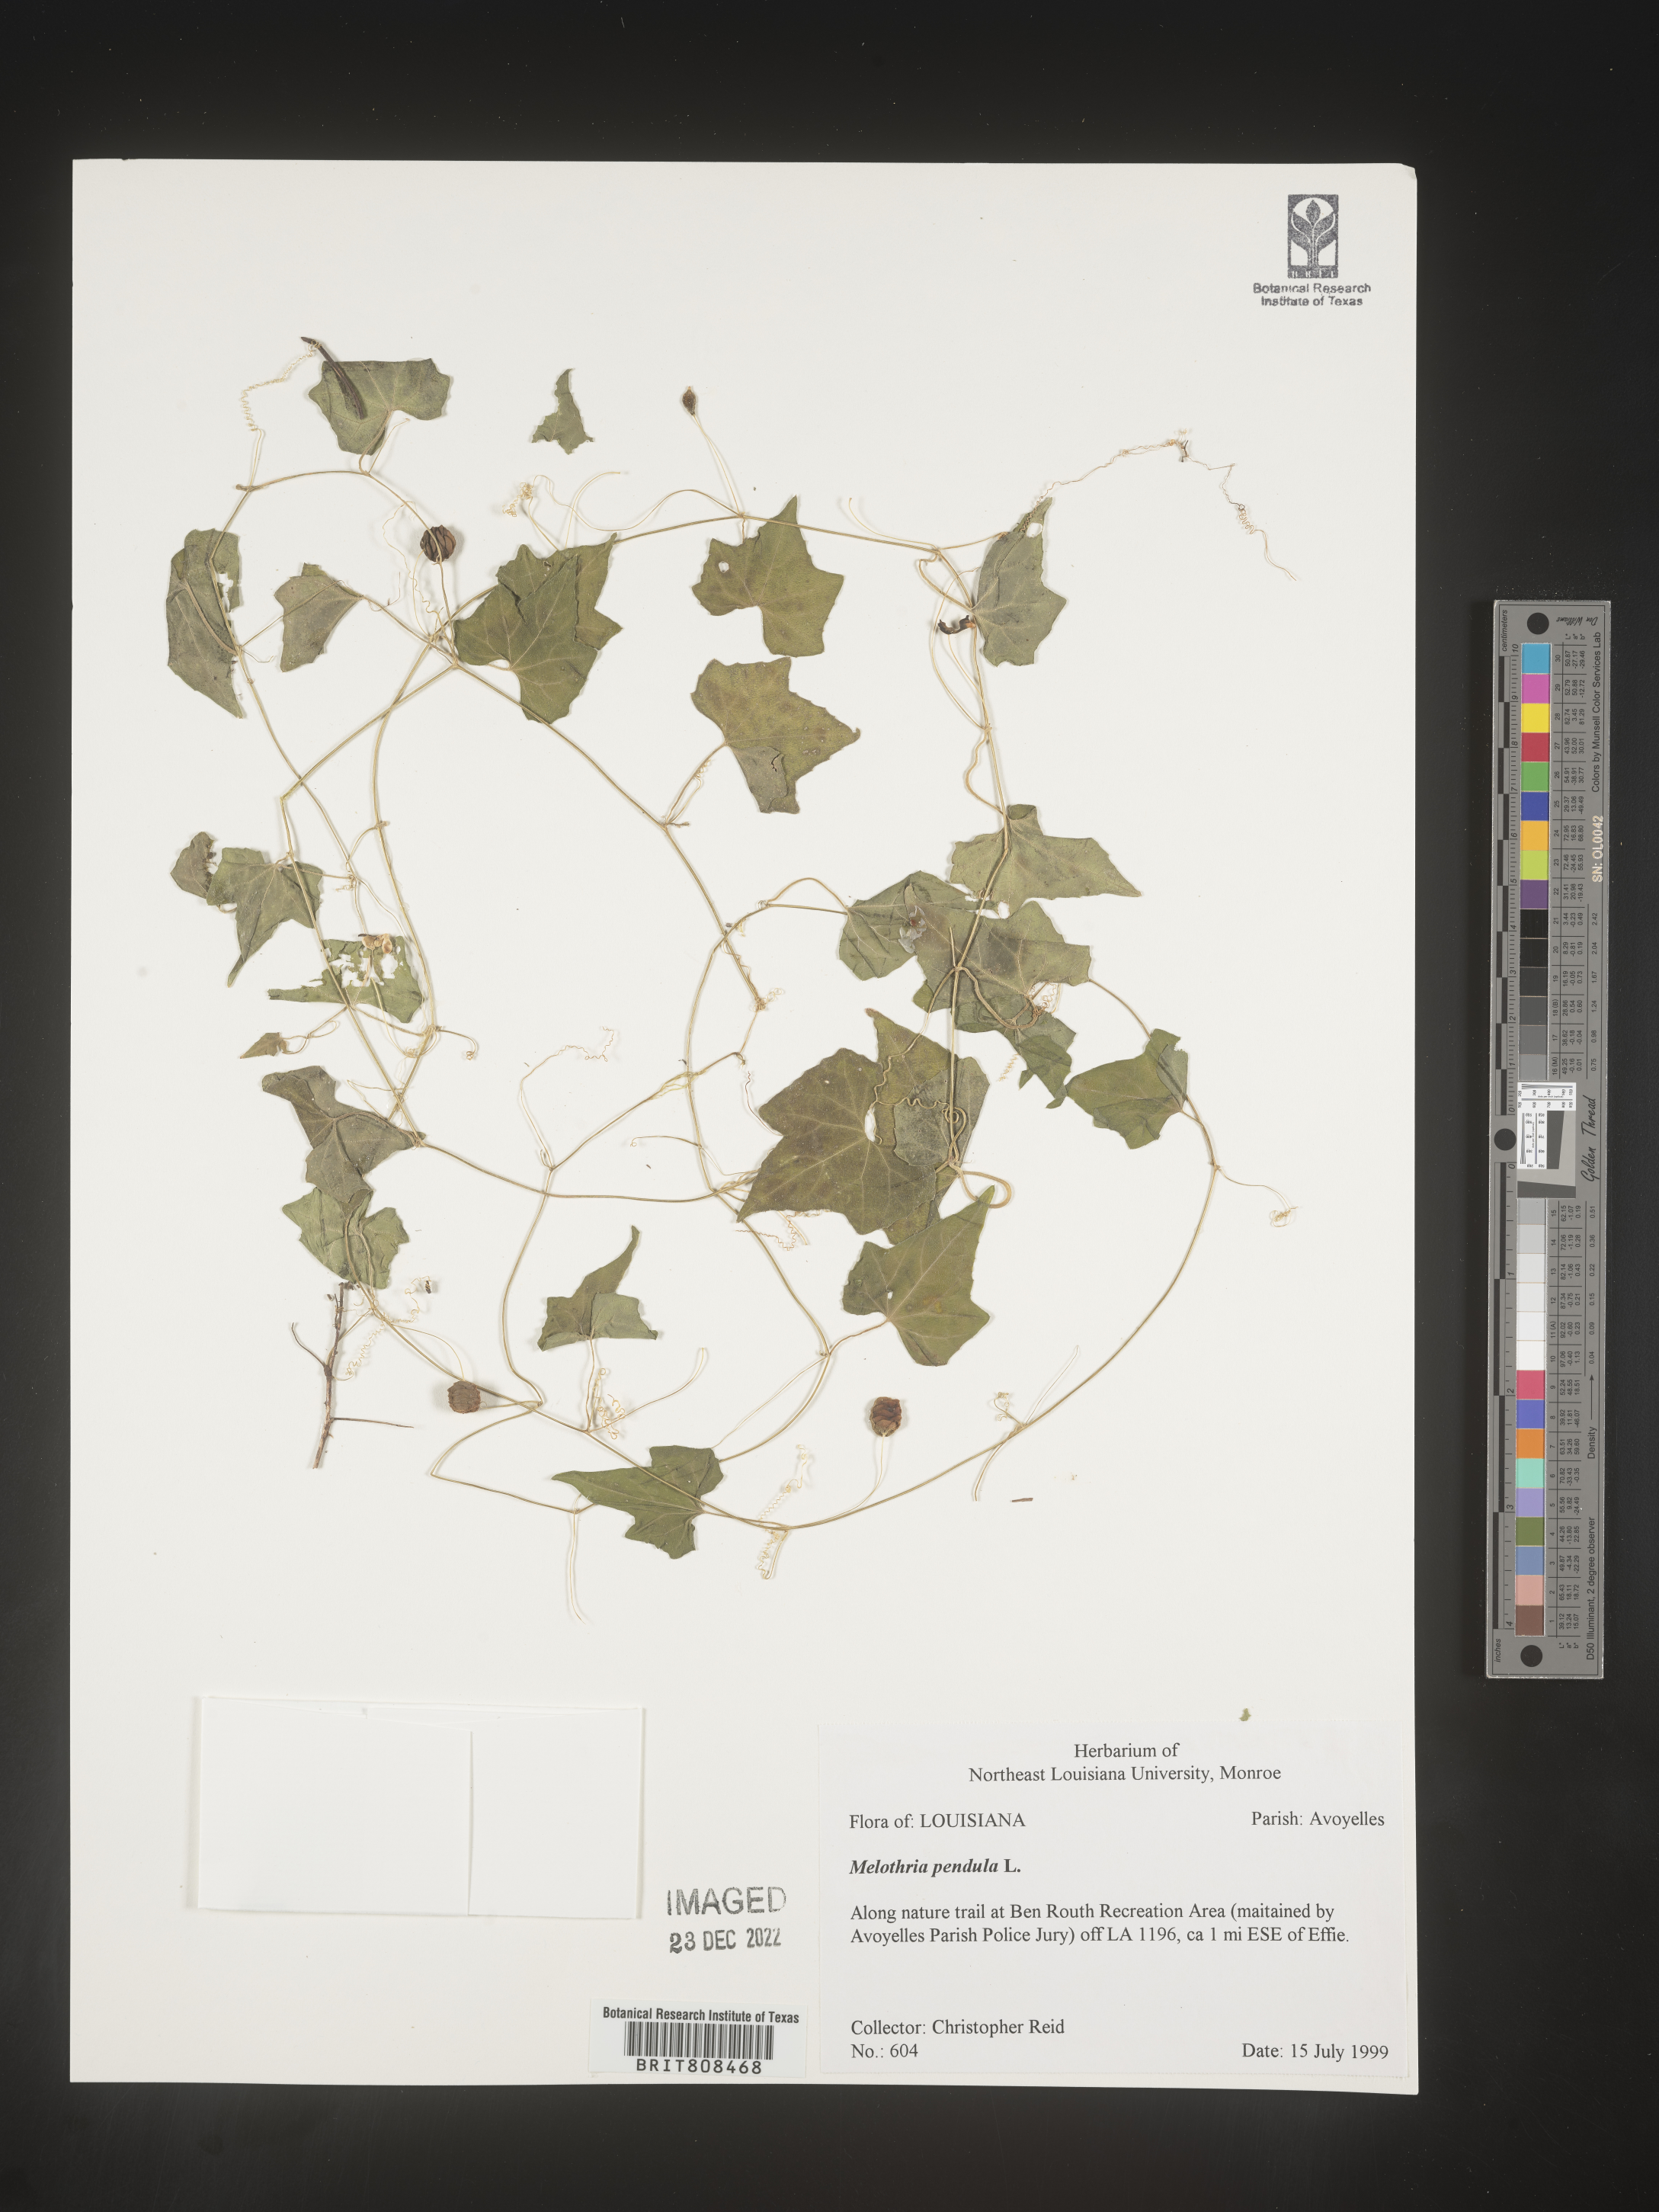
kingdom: Plantae
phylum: Tracheophyta
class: Magnoliopsida
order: Cucurbitales
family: Cucurbitaceae
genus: Melothria
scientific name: Melothria pendula
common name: Creeping-cucumber
